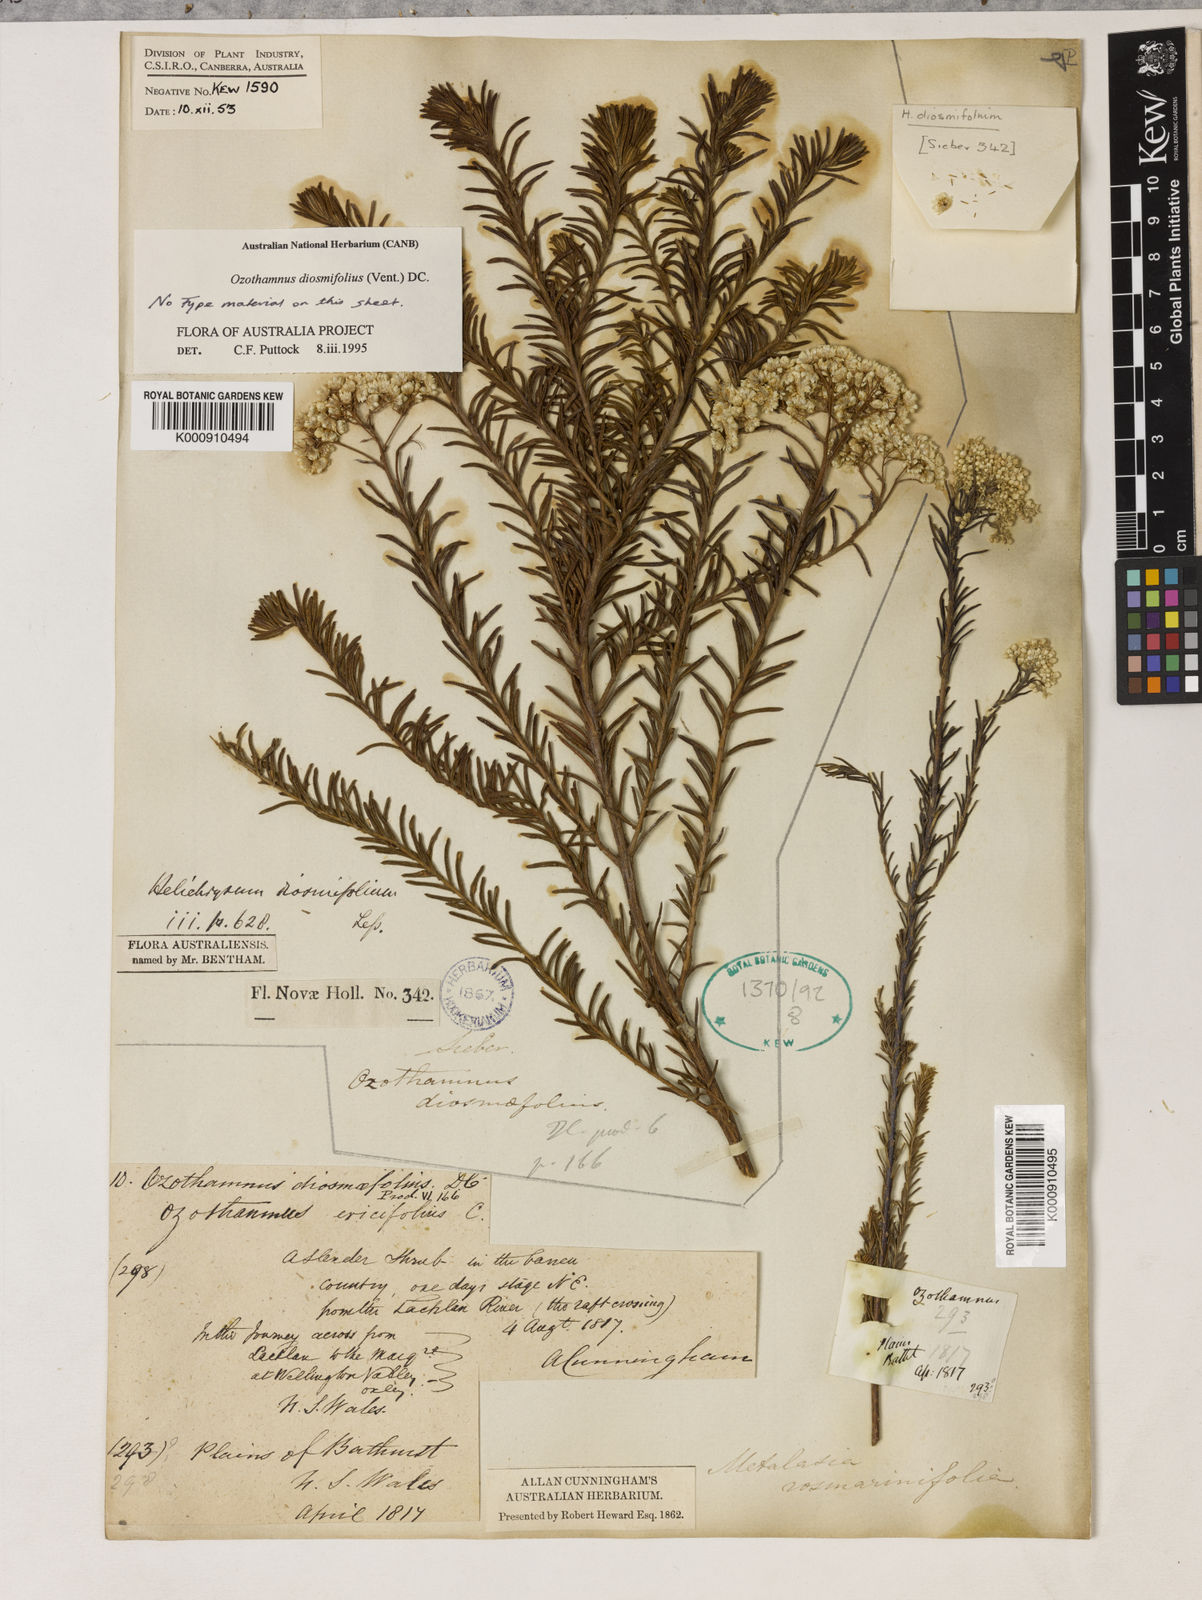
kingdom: Plantae
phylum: Tracheophyta
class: Magnoliopsida
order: Asterales
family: Asteraceae
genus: Ozothamnus
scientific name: Ozothamnus diosmifolius
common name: White-dogwood
